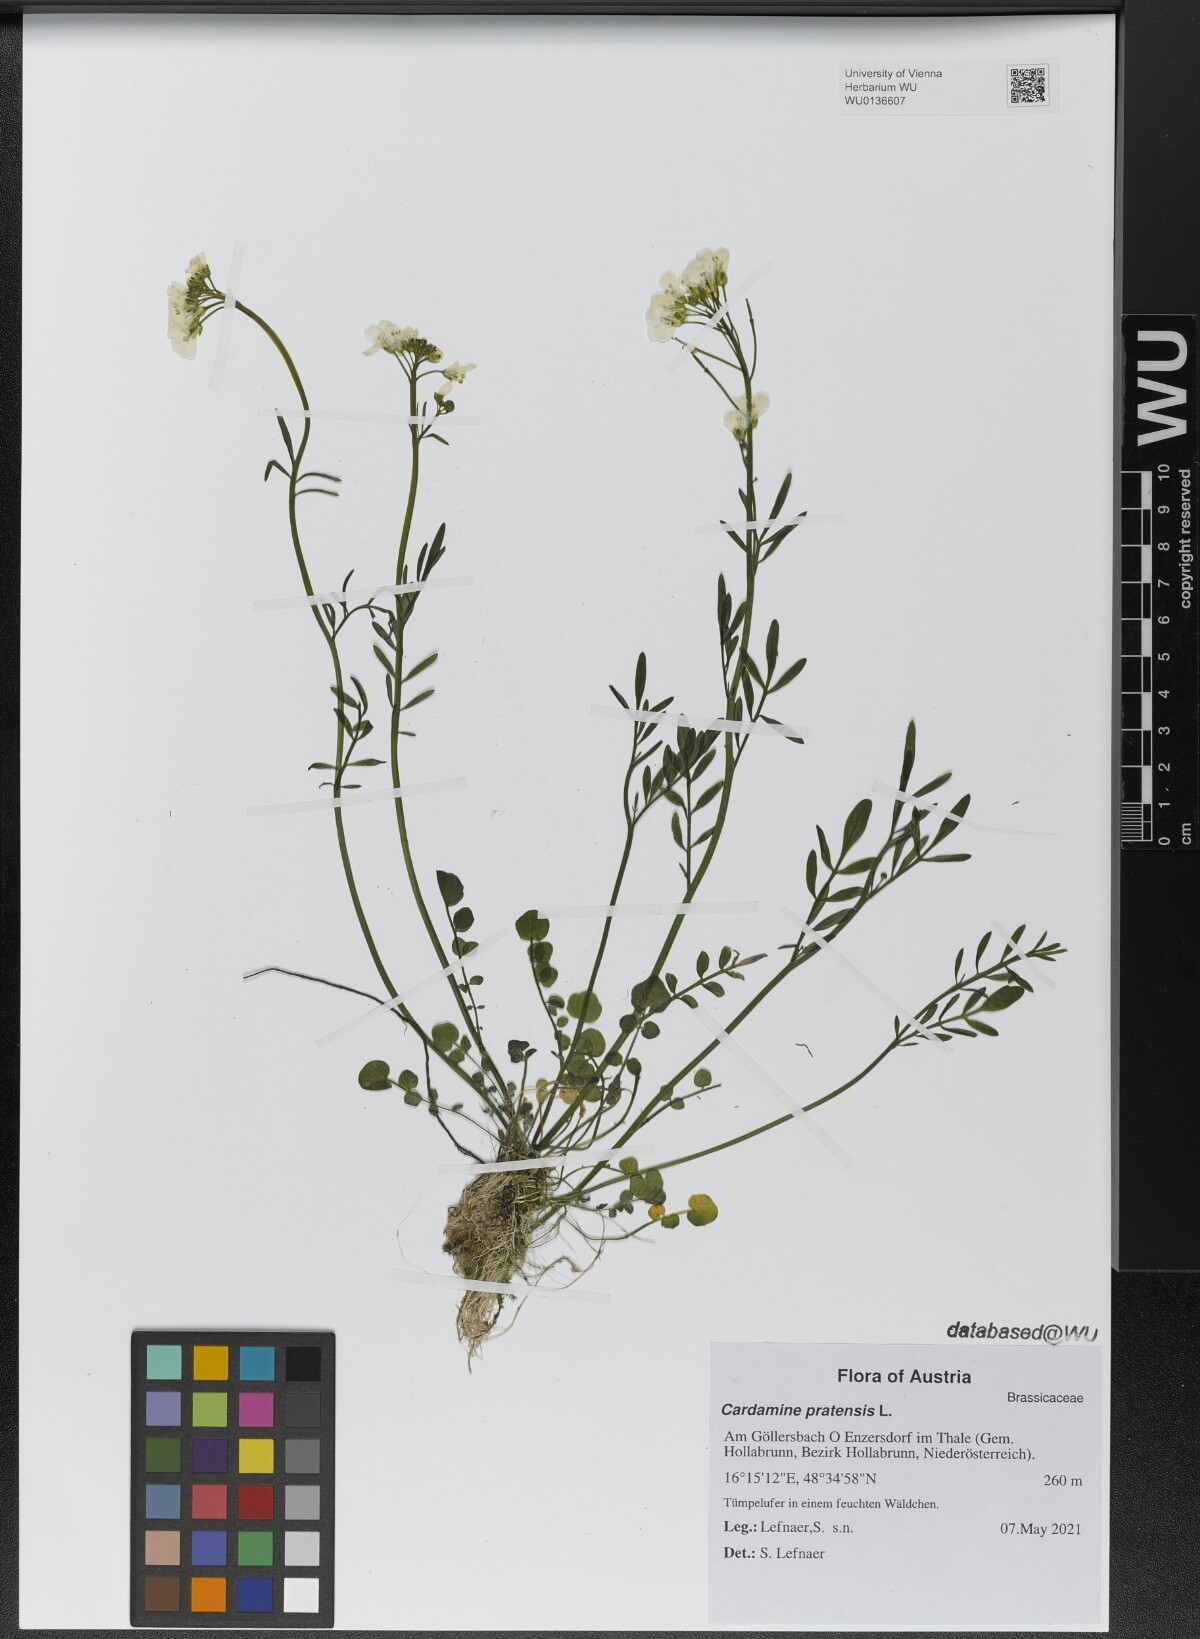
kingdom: Plantae
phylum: Tracheophyta
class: Magnoliopsida
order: Brassicales
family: Brassicaceae
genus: Cardamine
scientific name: Cardamine pratensis
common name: Cuckoo flower
